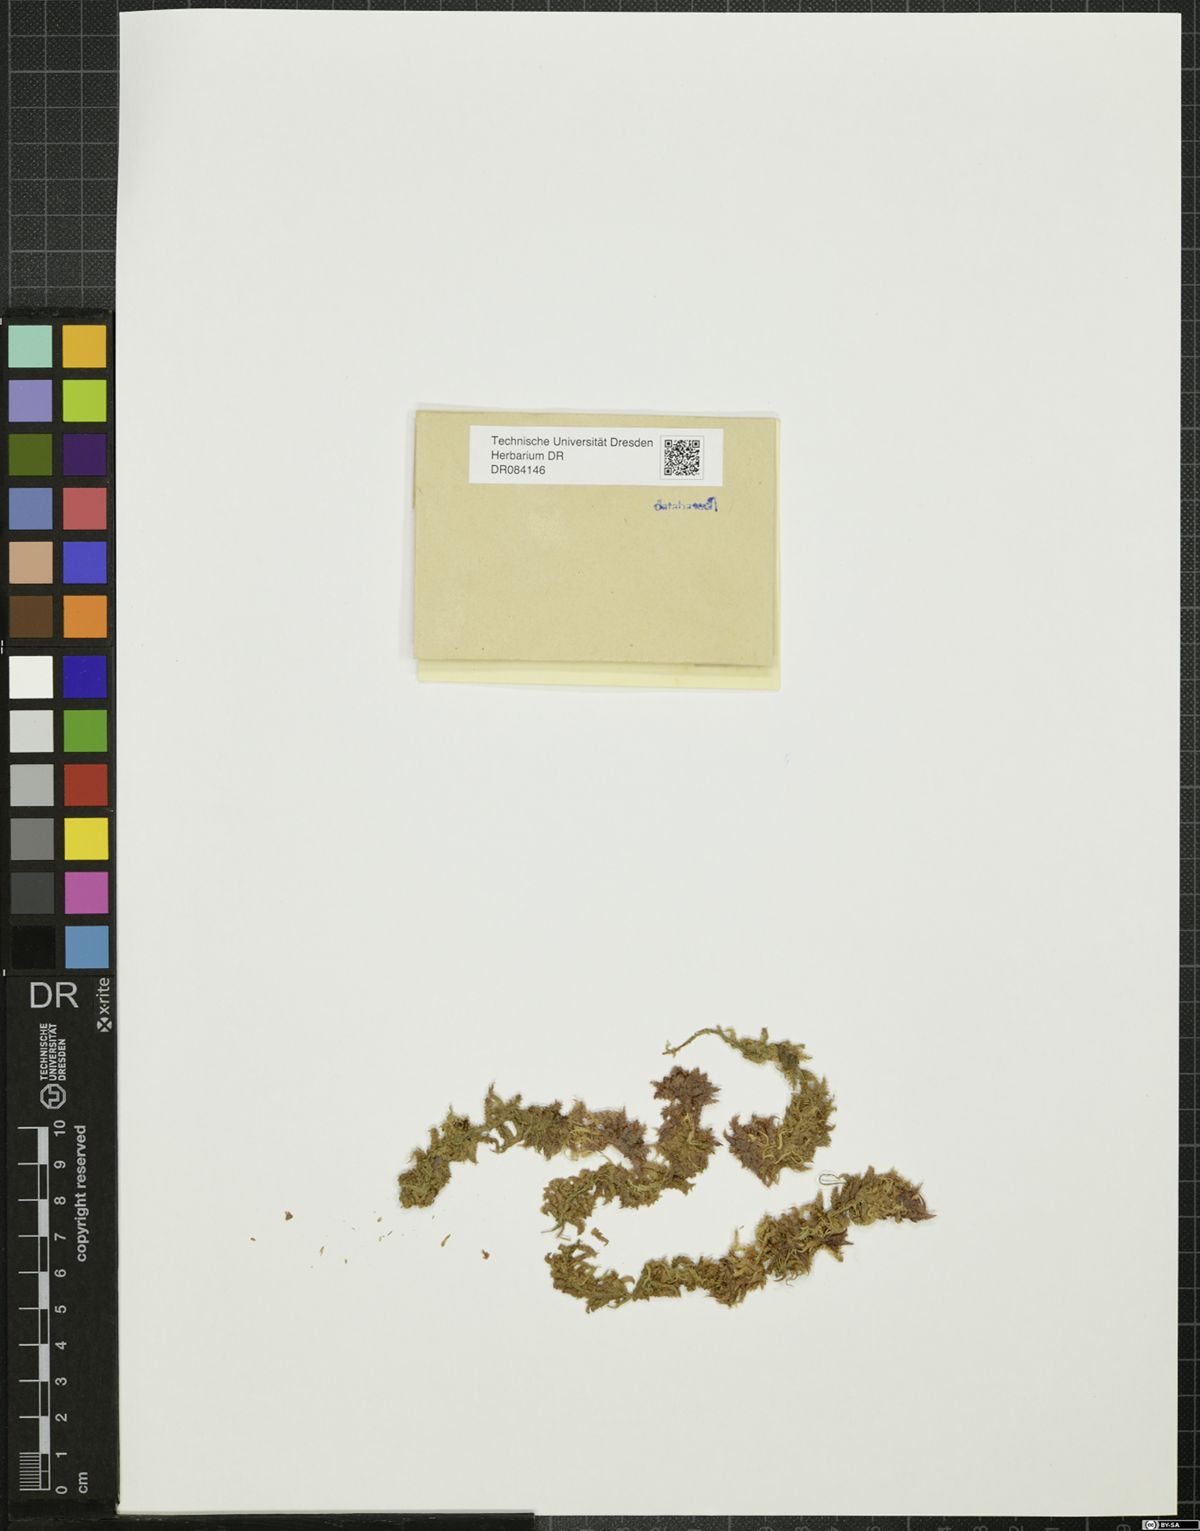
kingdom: Plantae
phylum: Bryophyta
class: Sphagnopsida
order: Sphagnales
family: Sphagnaceae
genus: Sphagnum
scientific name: Sphagnum
